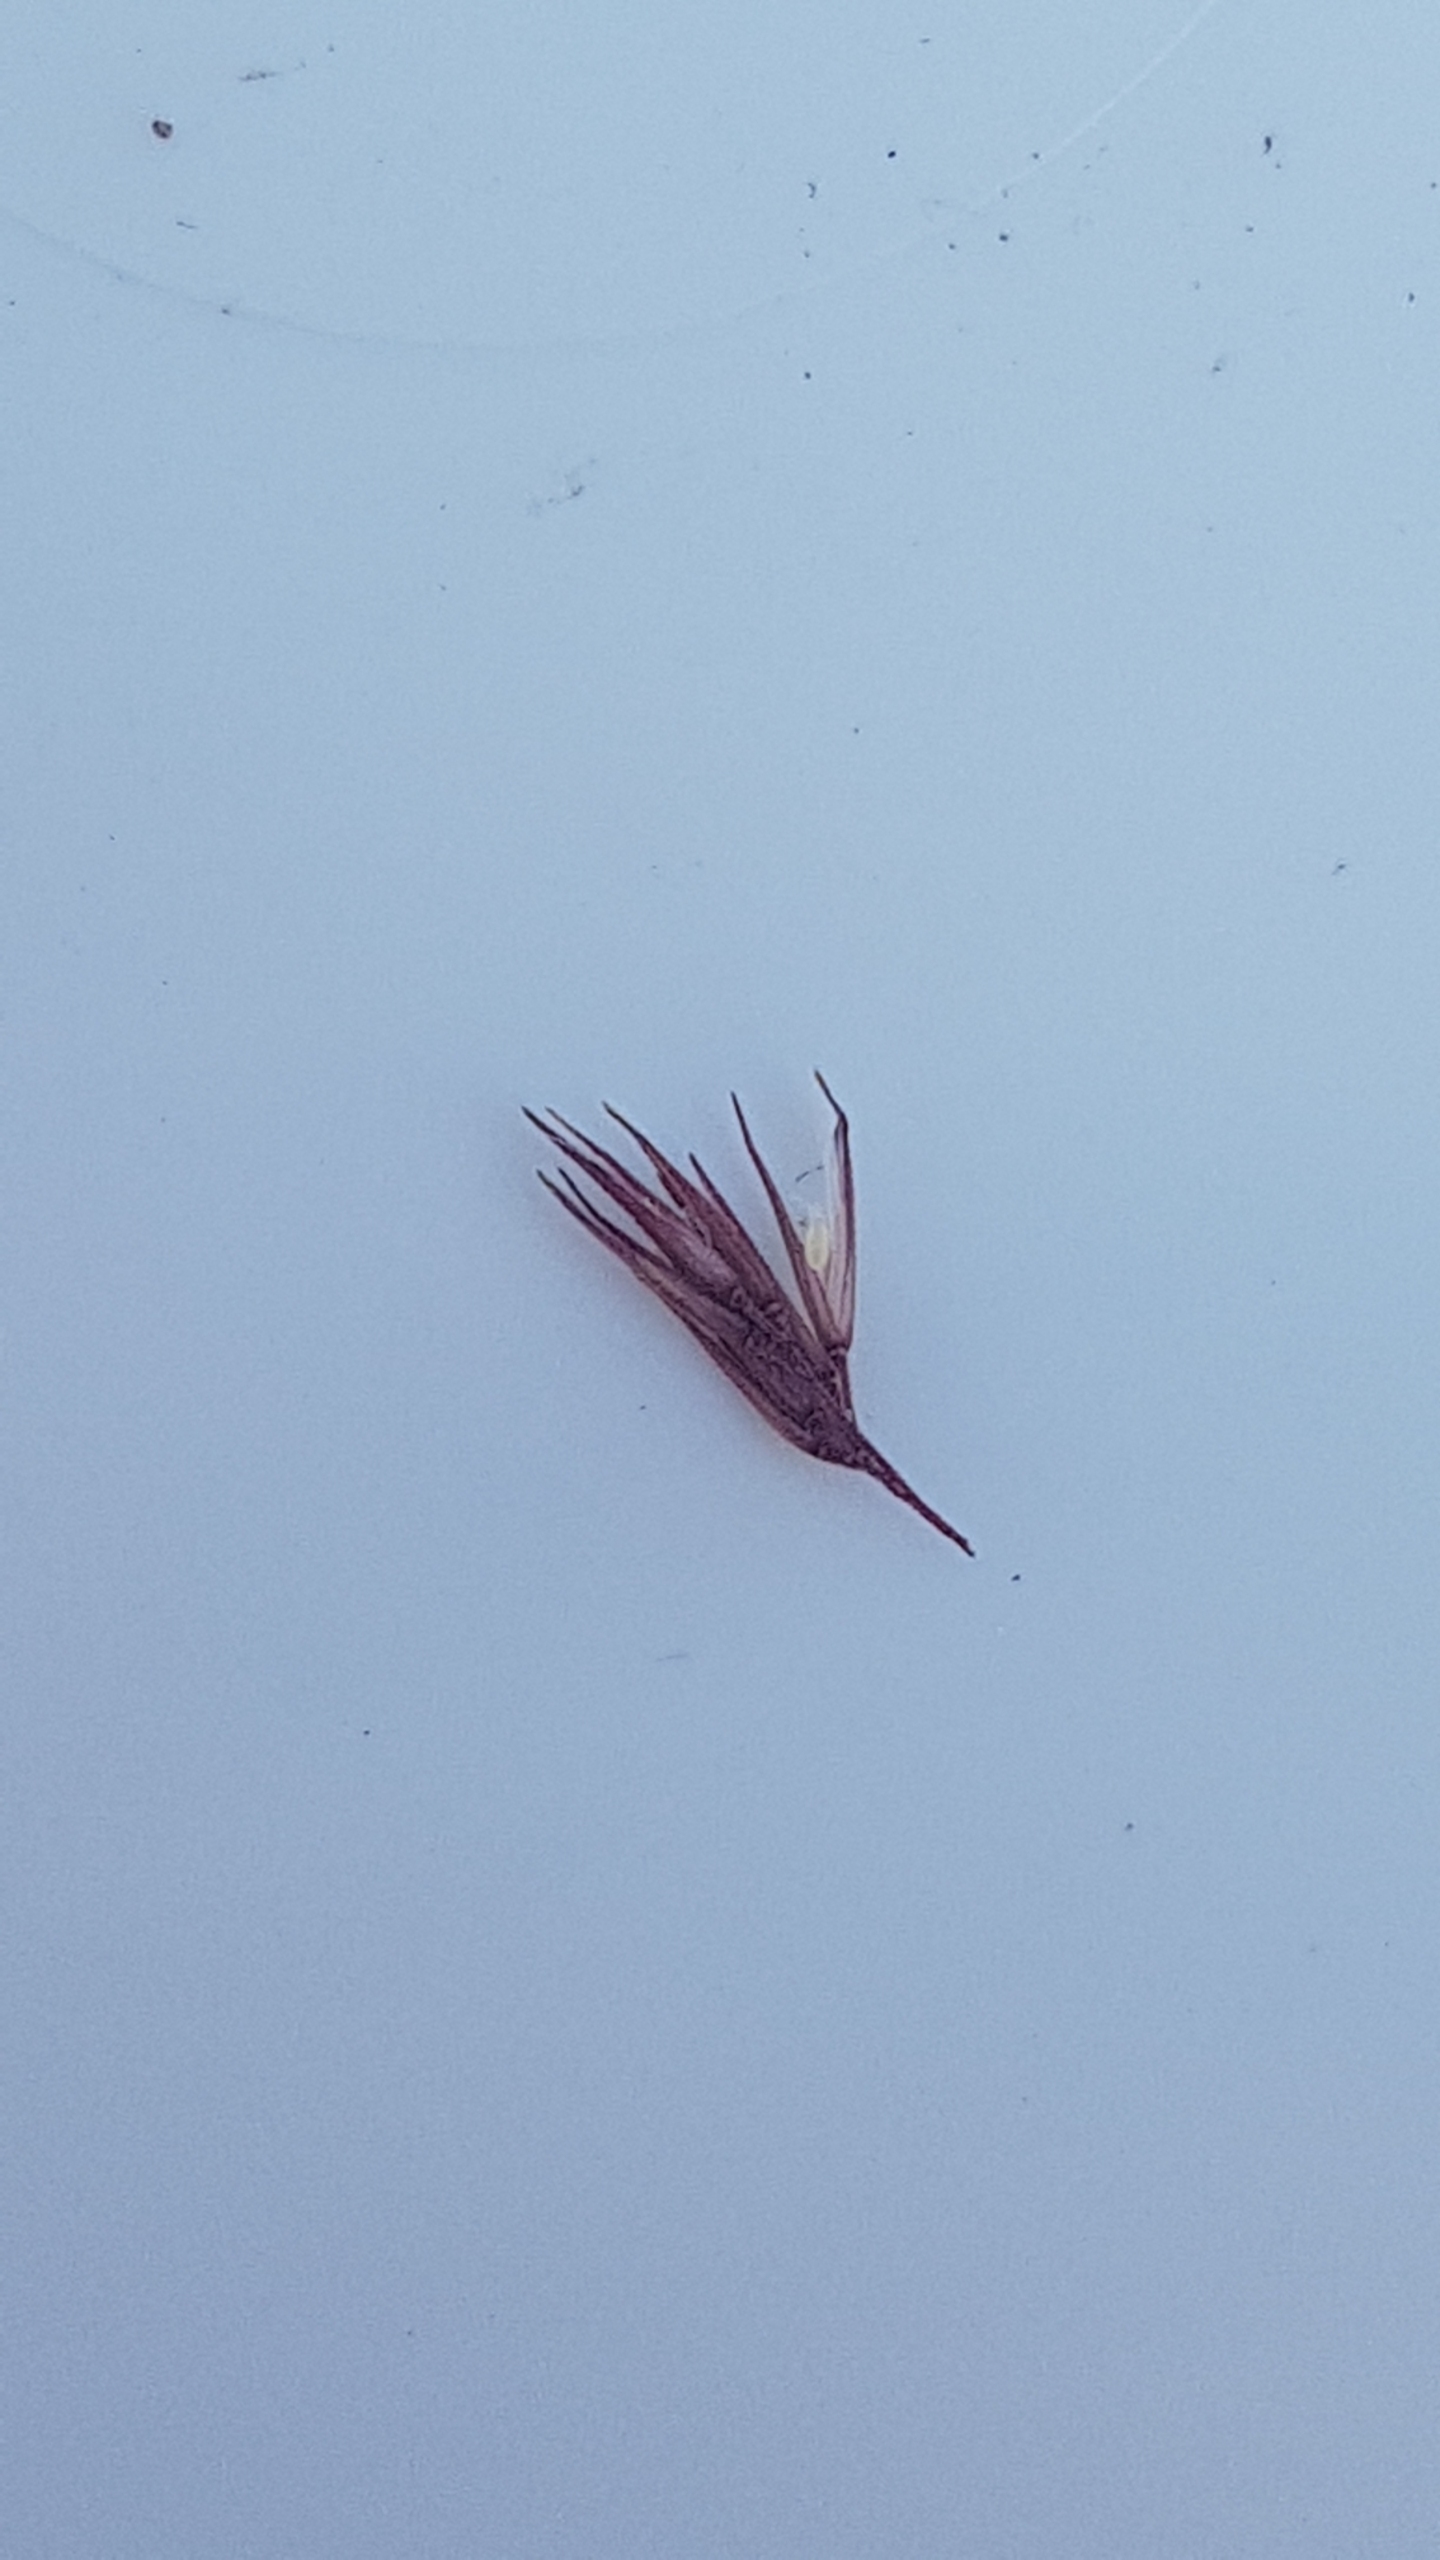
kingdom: Plantae
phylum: Tracheophyta
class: Liliopsida
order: Poales
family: Poaceae
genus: Agrostis
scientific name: Agrostis stolonifera
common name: Kryb-hvene
